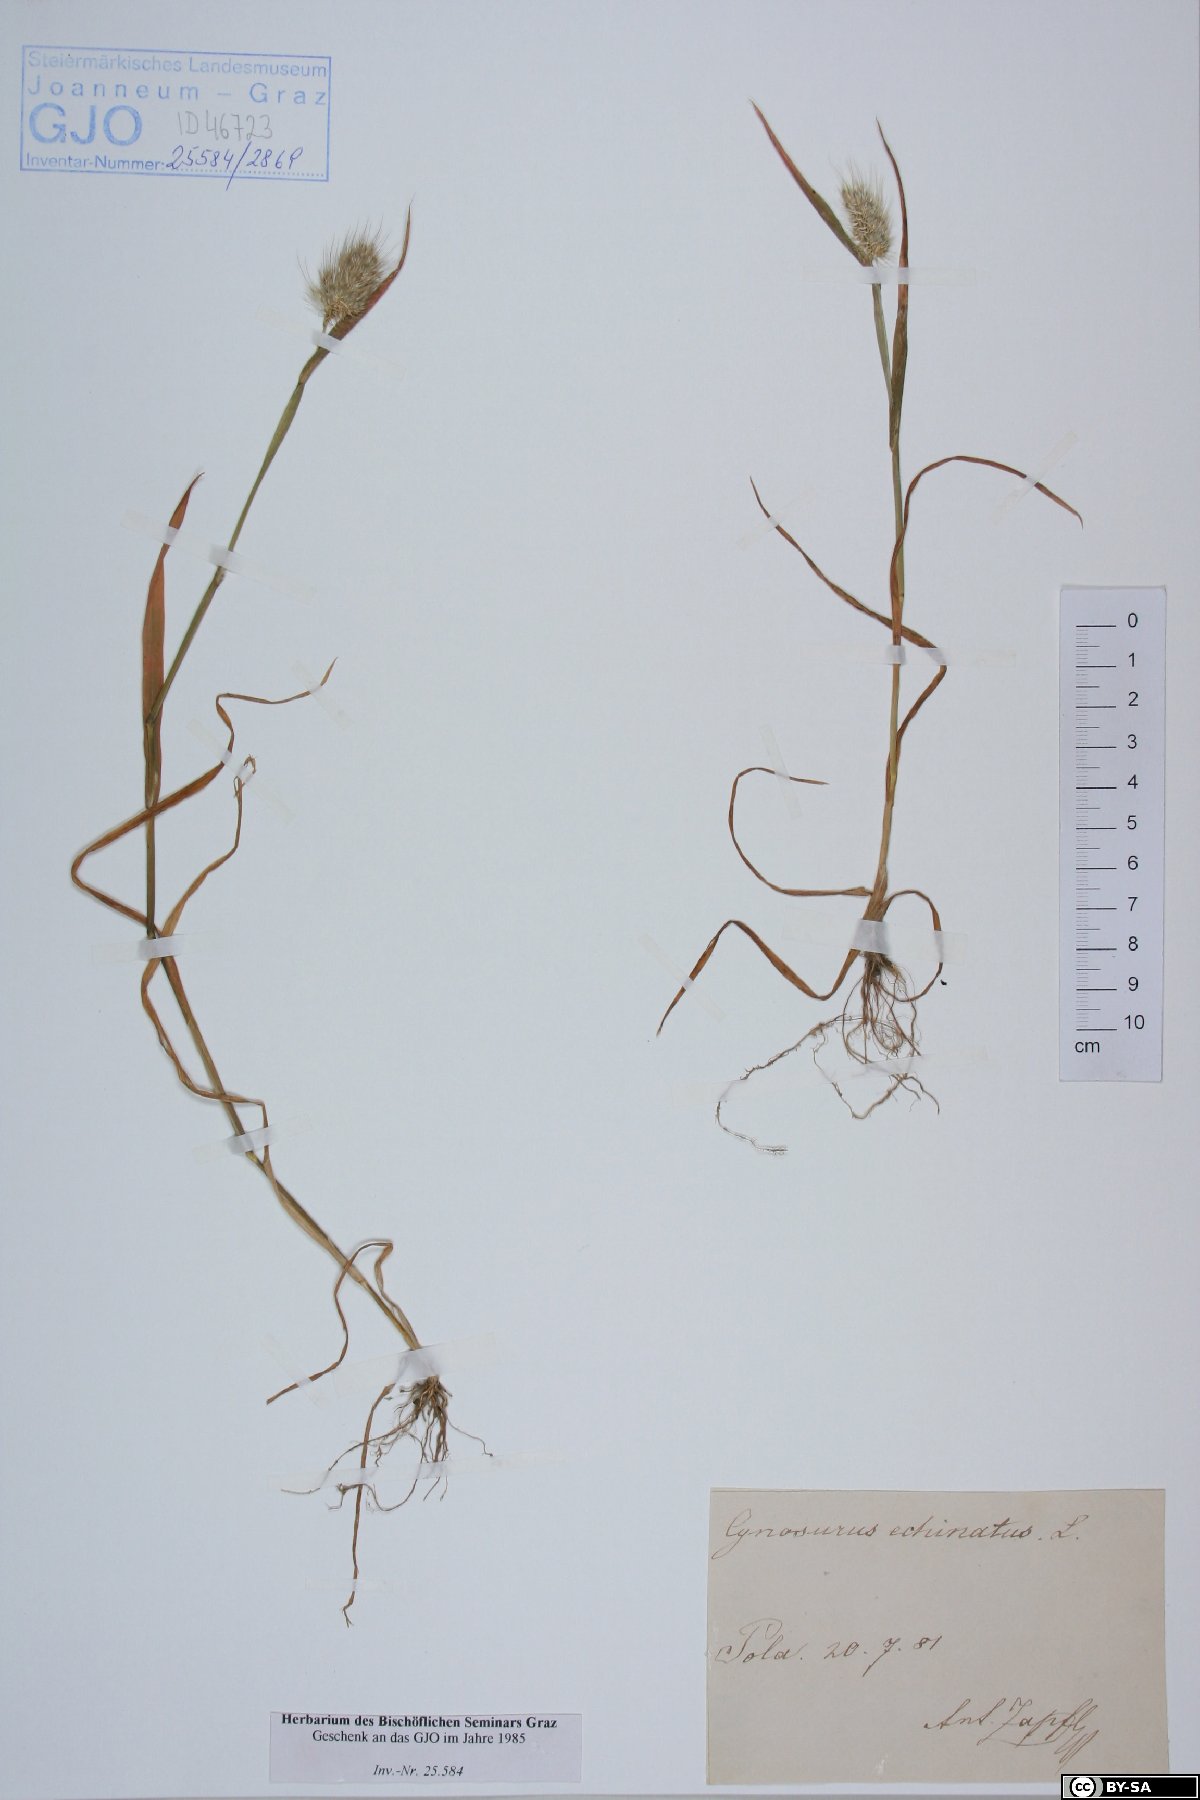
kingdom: Plantae
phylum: Tracheophyta
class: Liliopsida
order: Poales
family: Poaceae
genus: Cynosurus
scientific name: Cynosurus echinatus
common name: Rough dog's-tail
